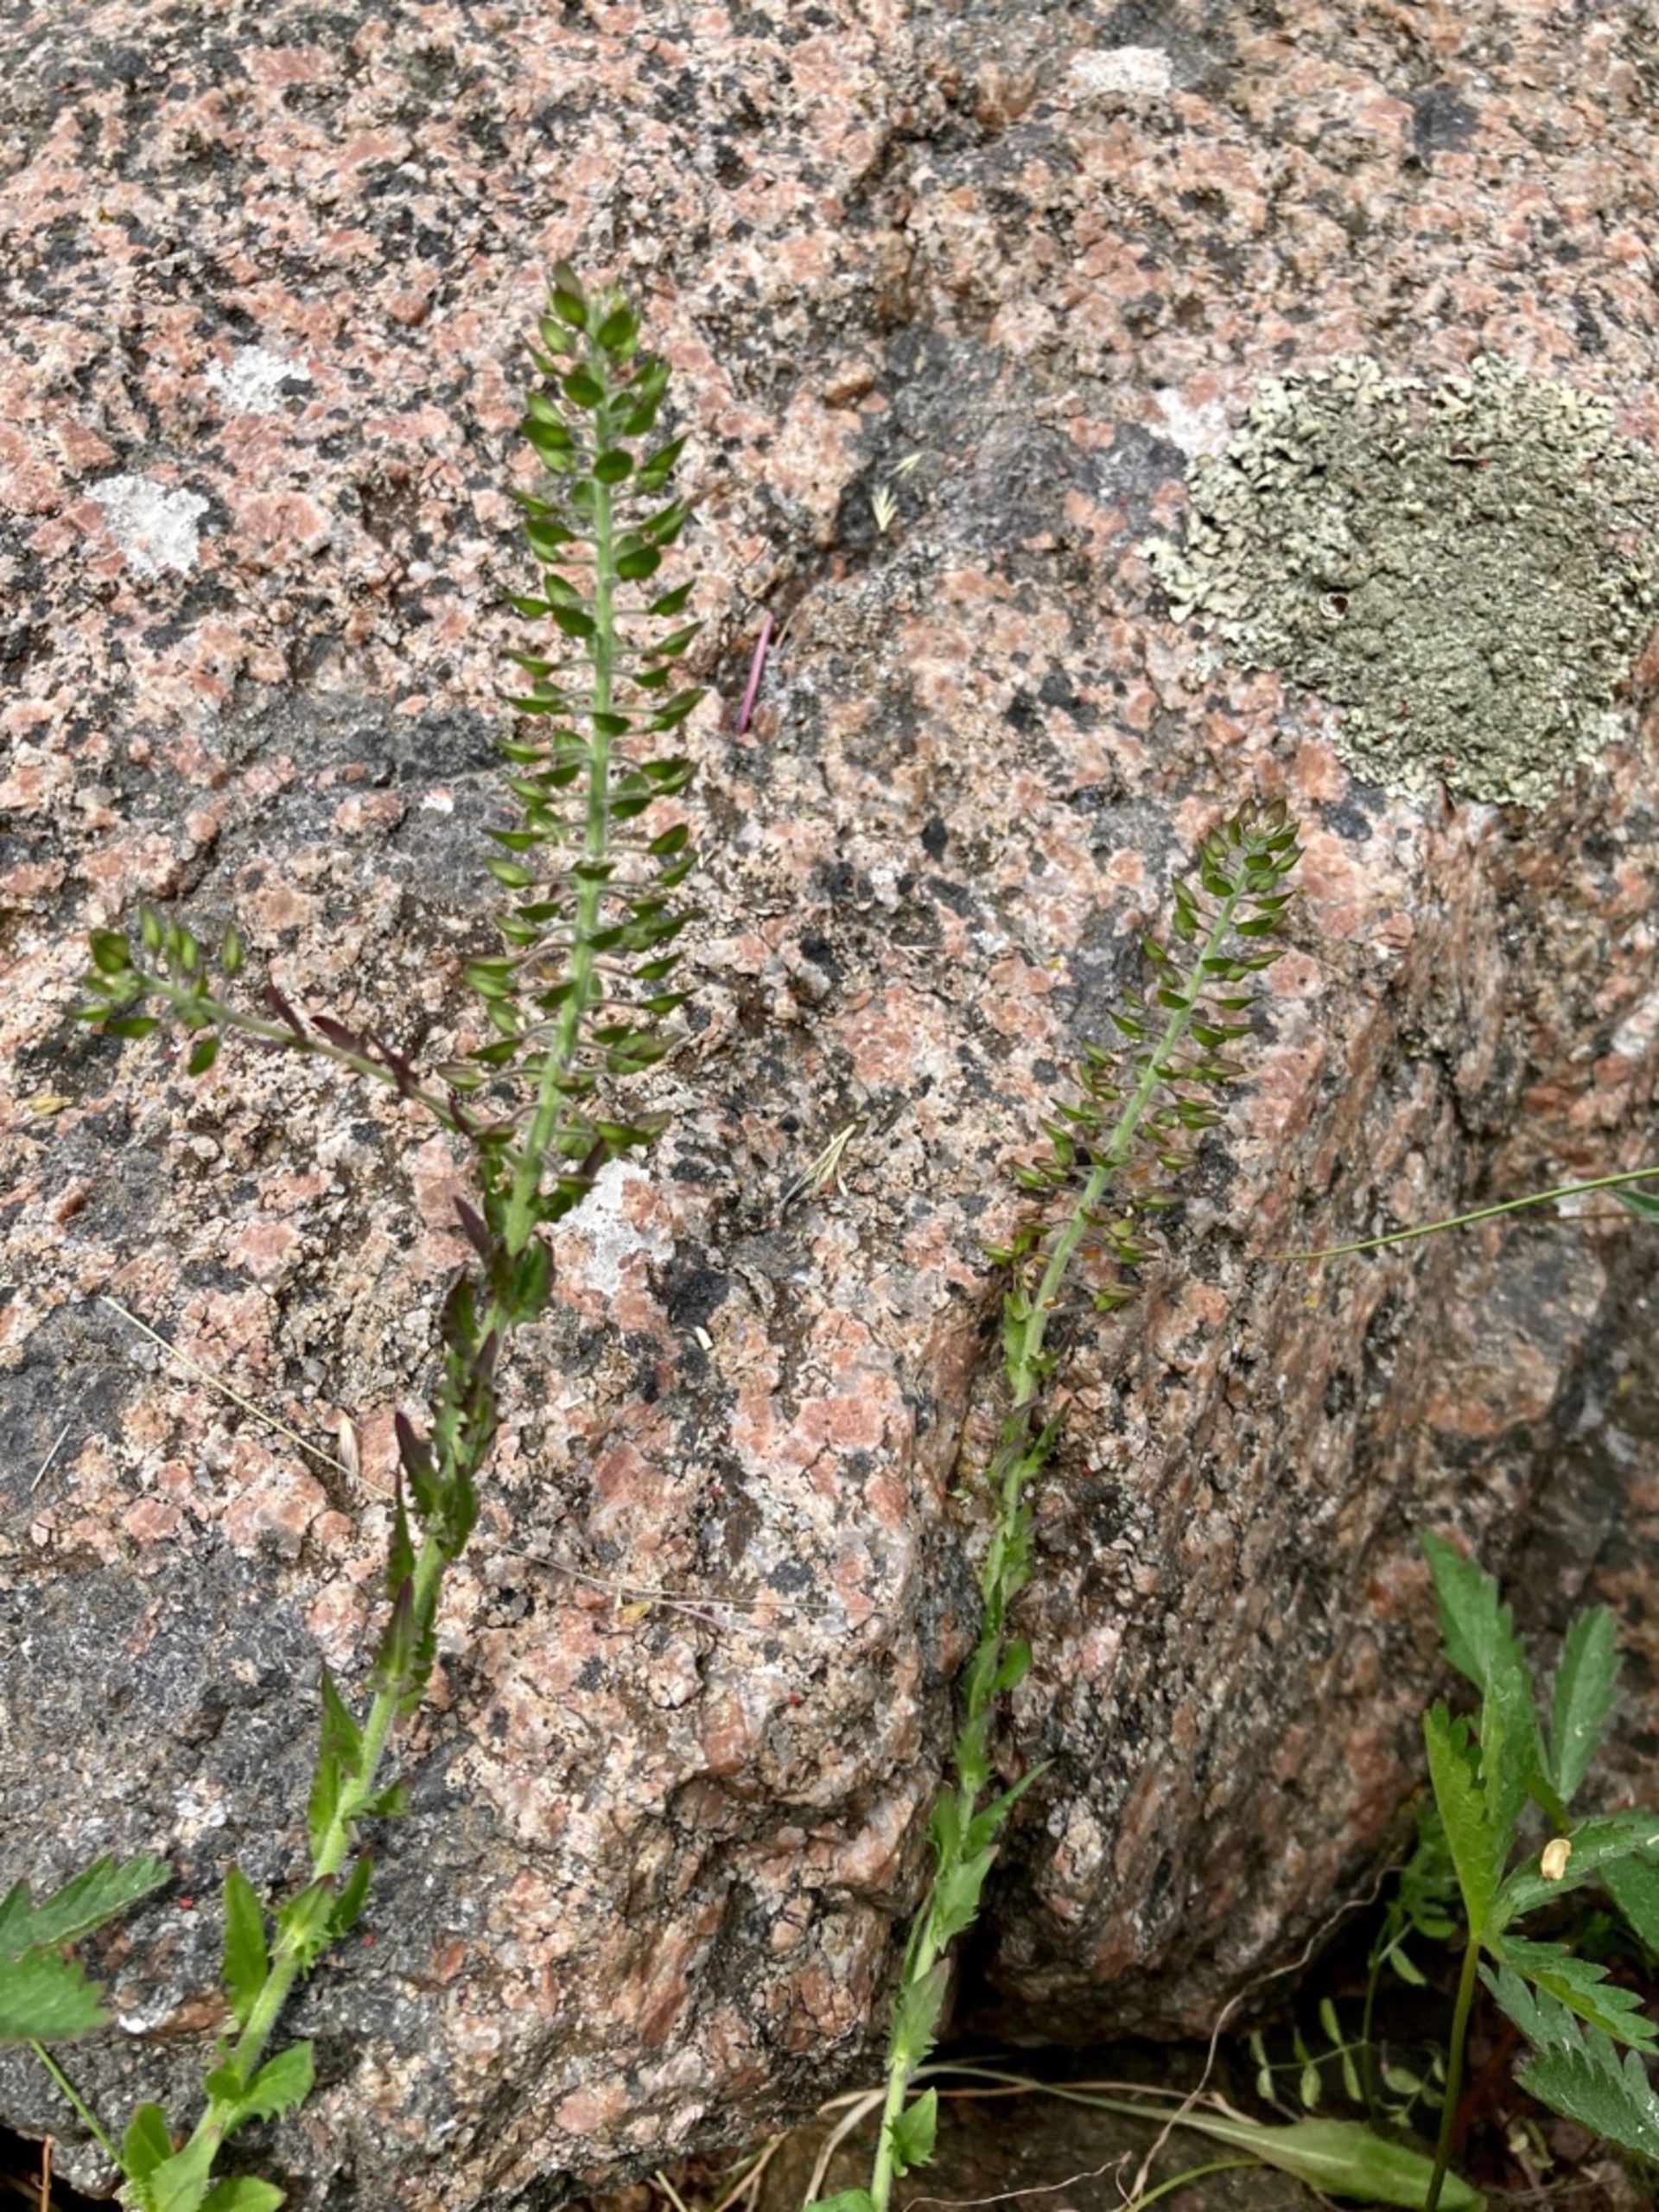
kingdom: Plantae
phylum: Tracheophyta
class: Magnoliopsida
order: Brassicales
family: Brassicaceae
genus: Lepidium
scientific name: Lepidium heterophyllum
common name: Forskelligbladet karse
